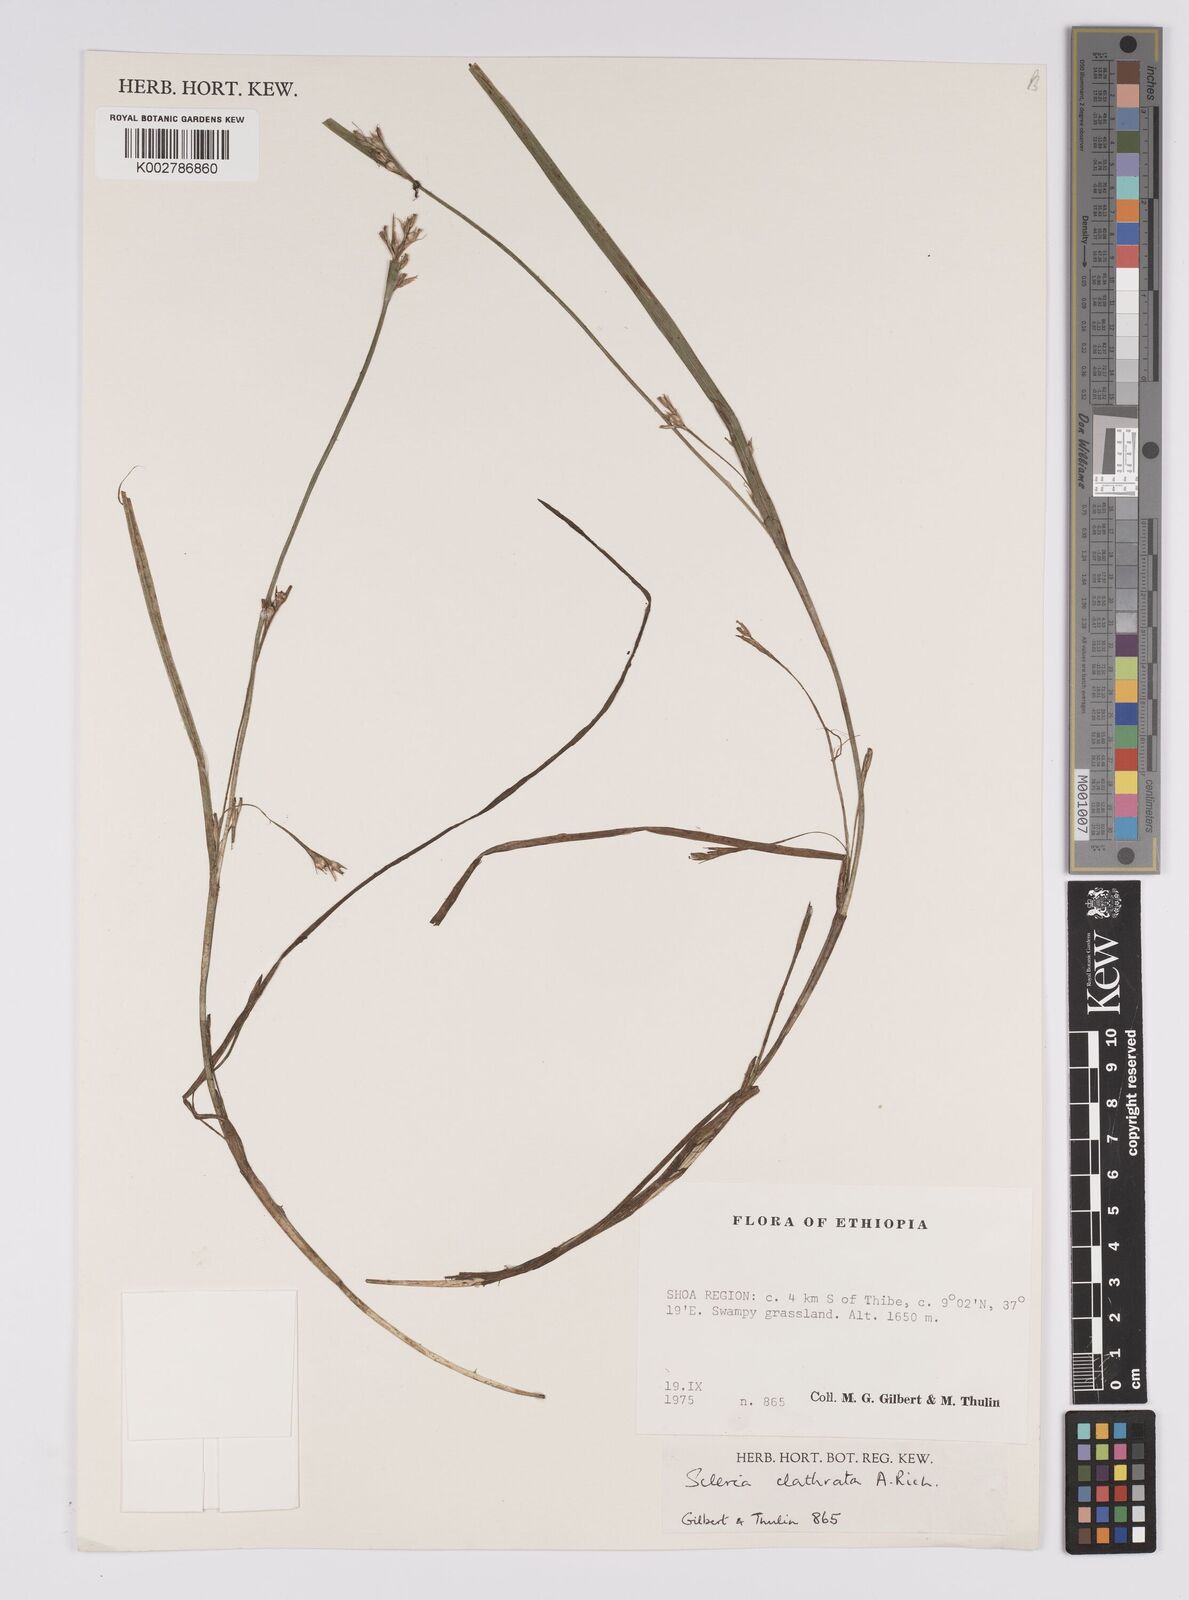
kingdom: Plantae
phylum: Tracheophyta
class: Liliopsida
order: Poales
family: Cyperaceae
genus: Scleria
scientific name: Scleria clathrata
